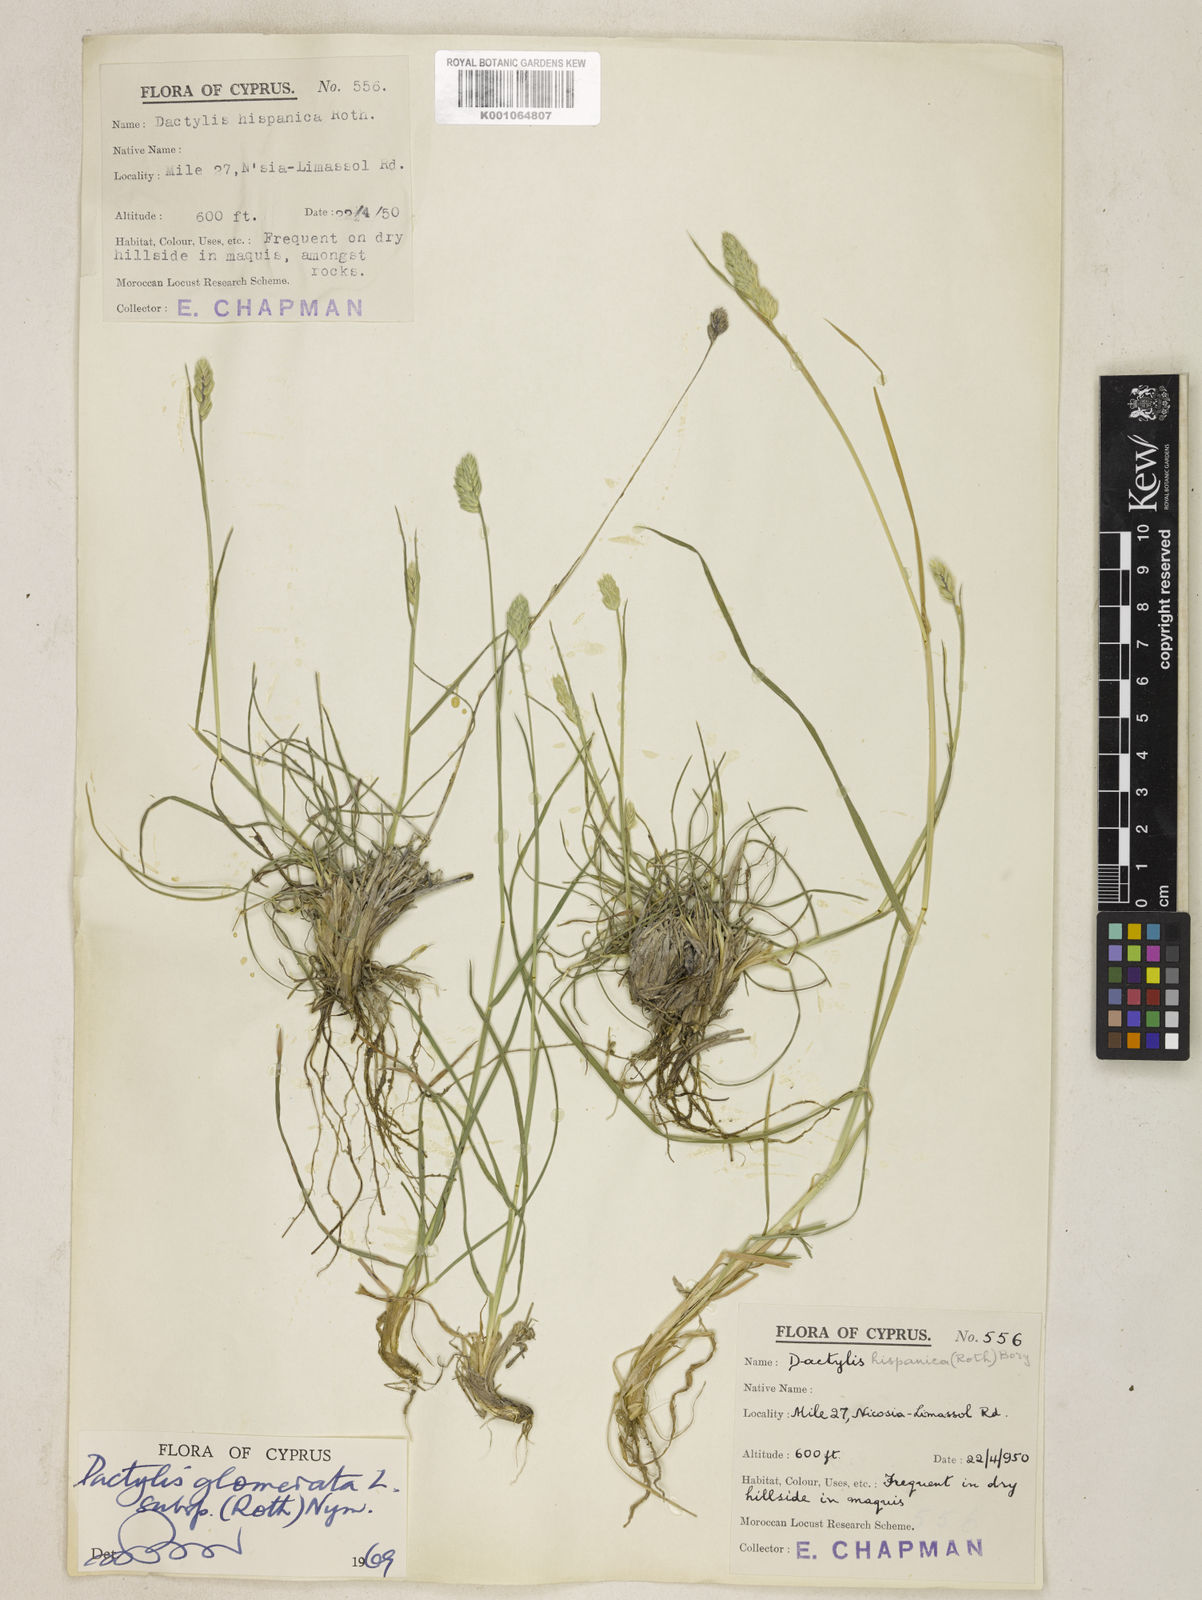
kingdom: Plantae
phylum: Tracheophyta
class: Liliopsida
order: Poales
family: Poaceae
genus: Dactylis
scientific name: Dactylis glomerata
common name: Orchardgrass
